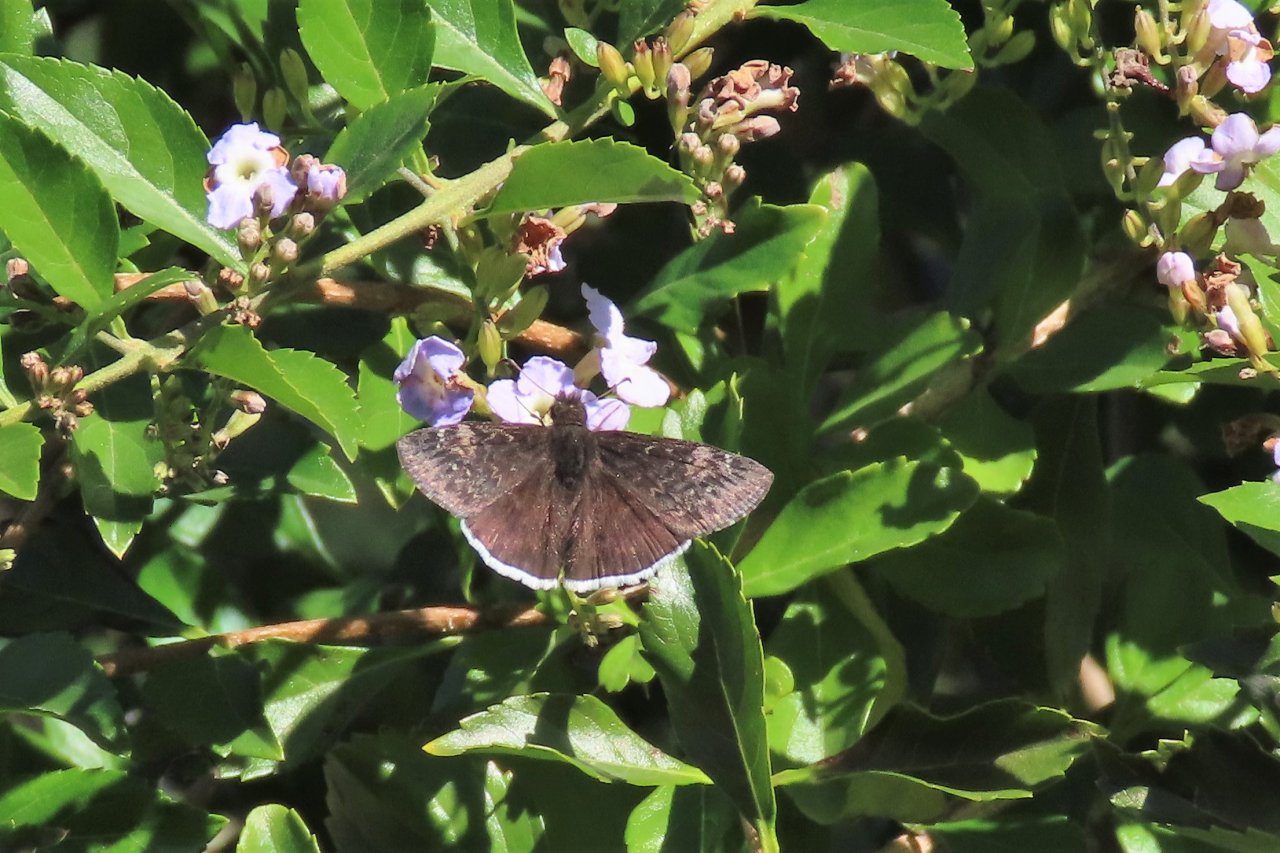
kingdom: Animalia
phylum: Arthropoda
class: Insecta
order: Lepidoptera
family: Hesperiidae
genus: Erynnis
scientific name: Erynnis funeralis
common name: Funereal Duskywing
